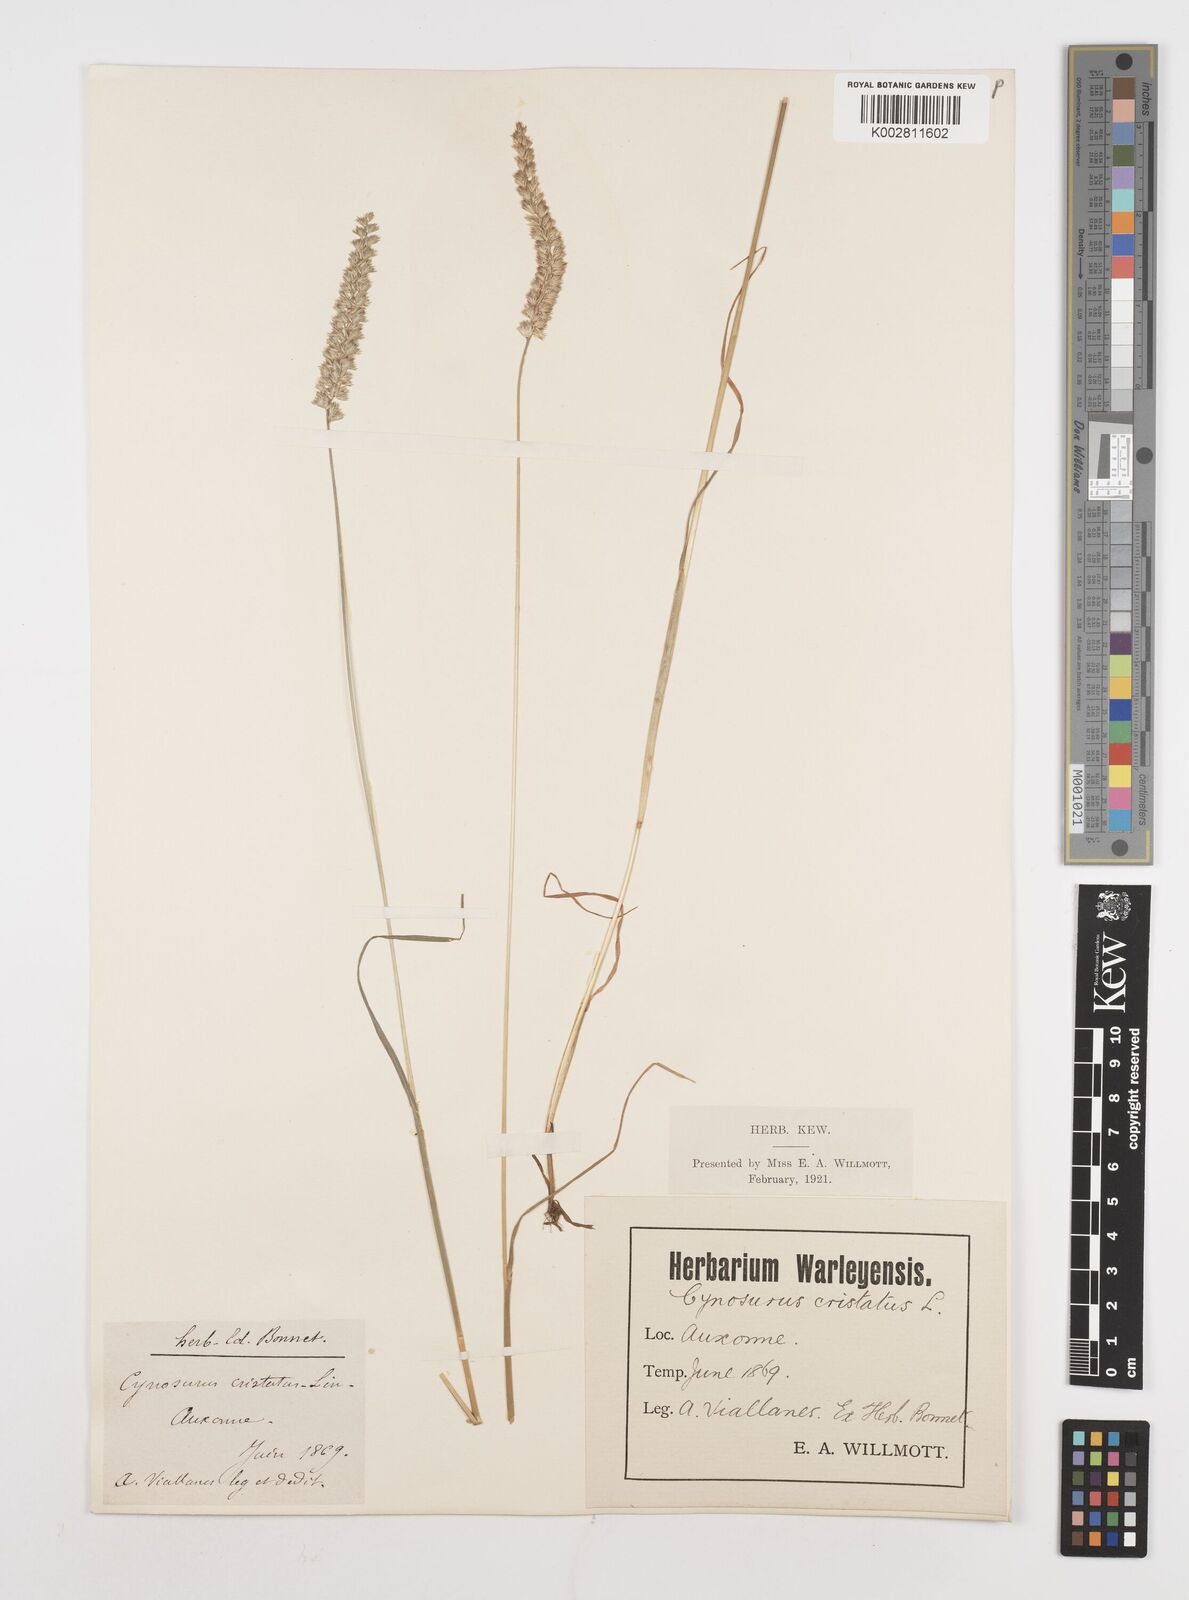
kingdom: Plantae
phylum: Tracheophyta
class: Liliopsida
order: Poales
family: Poaceae
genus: Cynosurus
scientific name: Cynosurus cristatus
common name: Crested dog's-tail
